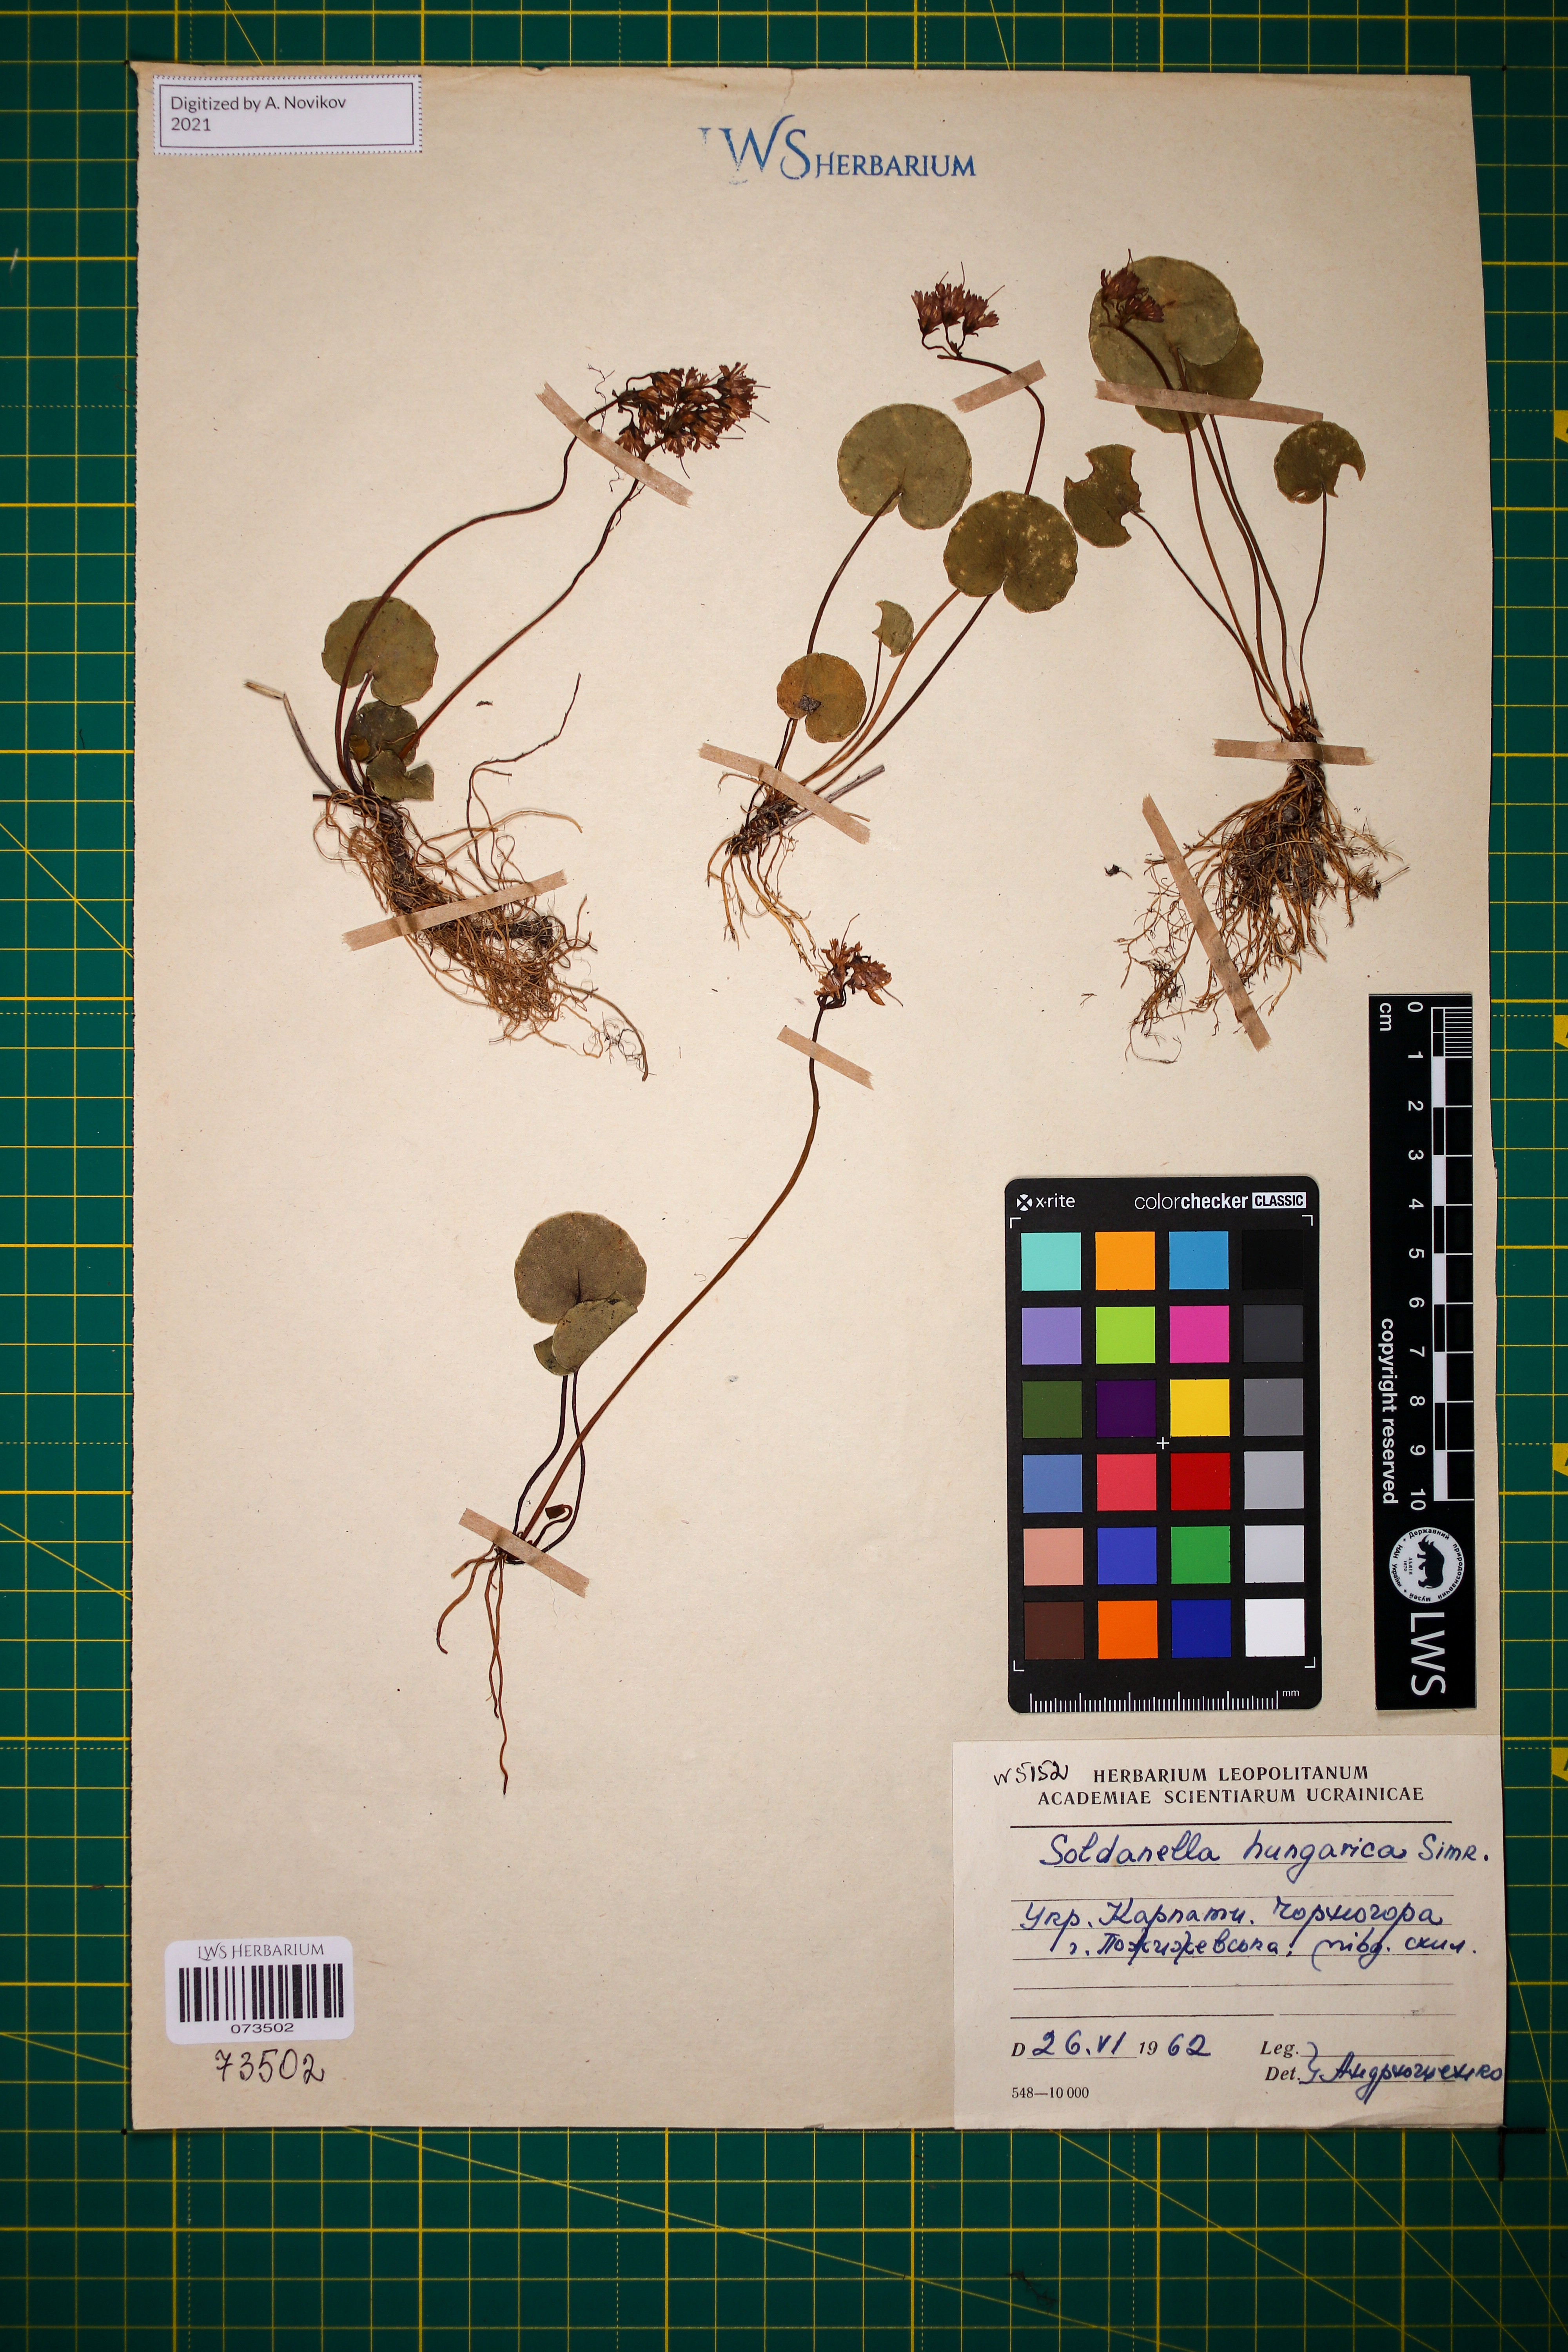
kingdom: Plantae
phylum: Tracheophyta
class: Magnoliopsida
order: Ericales
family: Primulaceae
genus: Soldanella
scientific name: Soldanella hungarica
